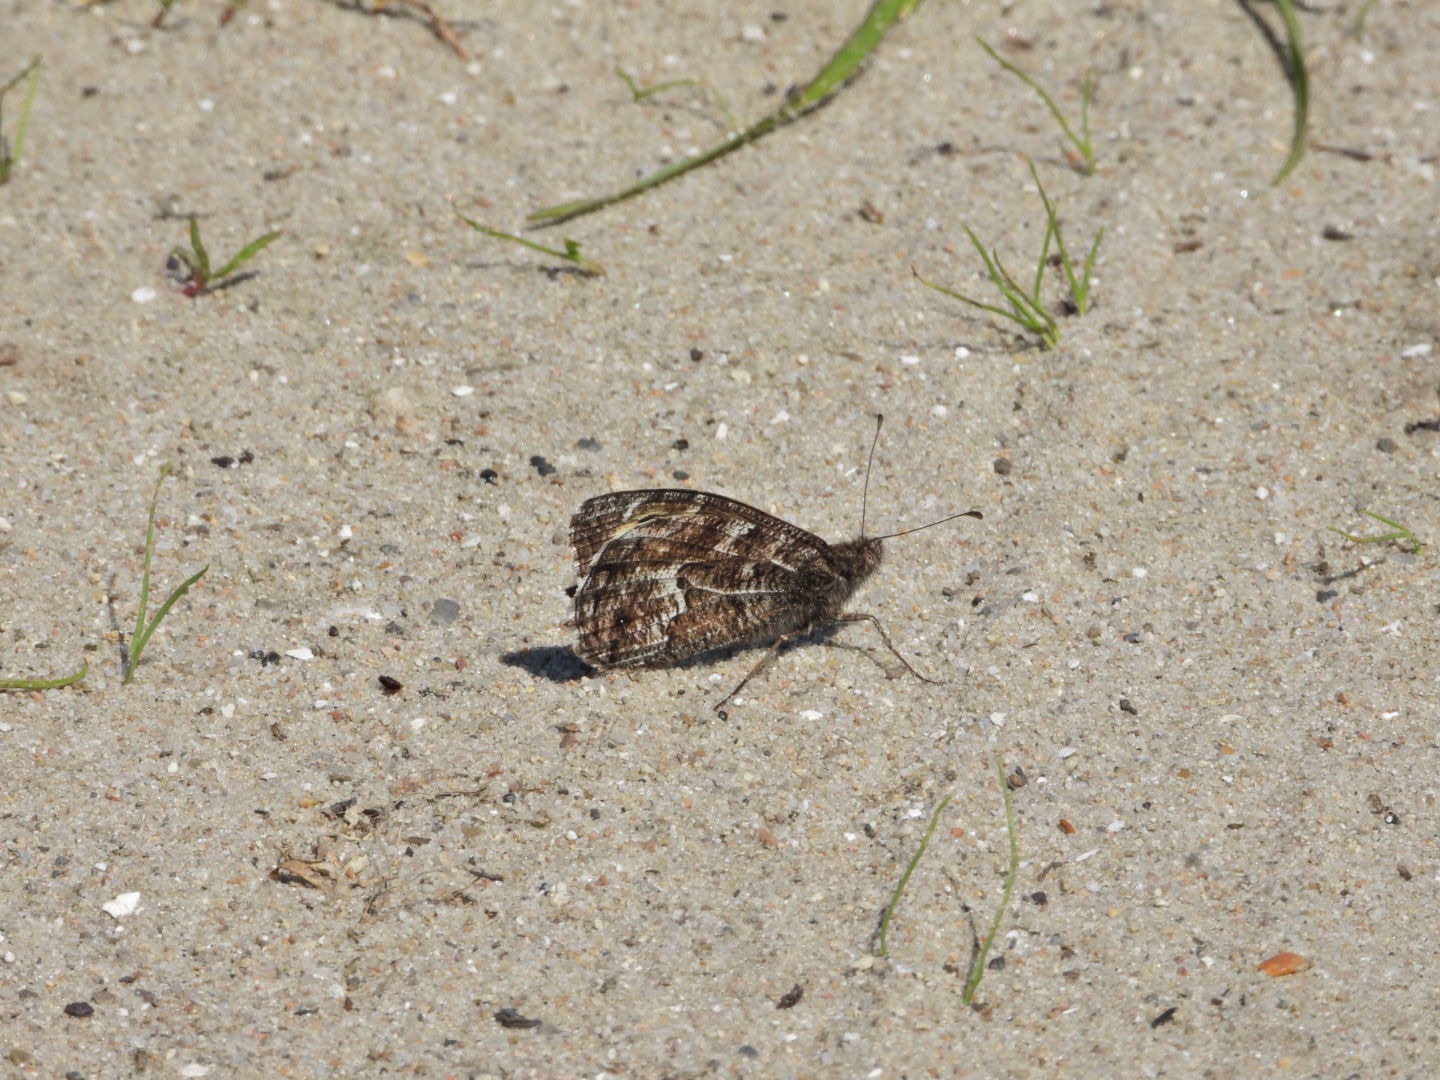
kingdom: Animalia
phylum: Arthropoda
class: Insecta
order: Lepidoptera
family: Nymphalidae
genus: Hipparchia
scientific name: Hipparchia semele
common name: Sandrandøje
